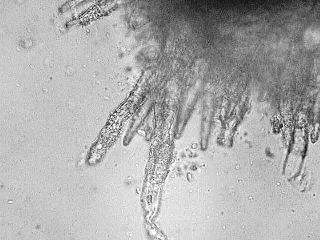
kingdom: Fungi
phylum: Basidiomycota
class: Agaricomycetes
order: Polyporales
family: Meruliaceae
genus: Scopuloides
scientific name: Scopuloides rimosa
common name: dughinde
